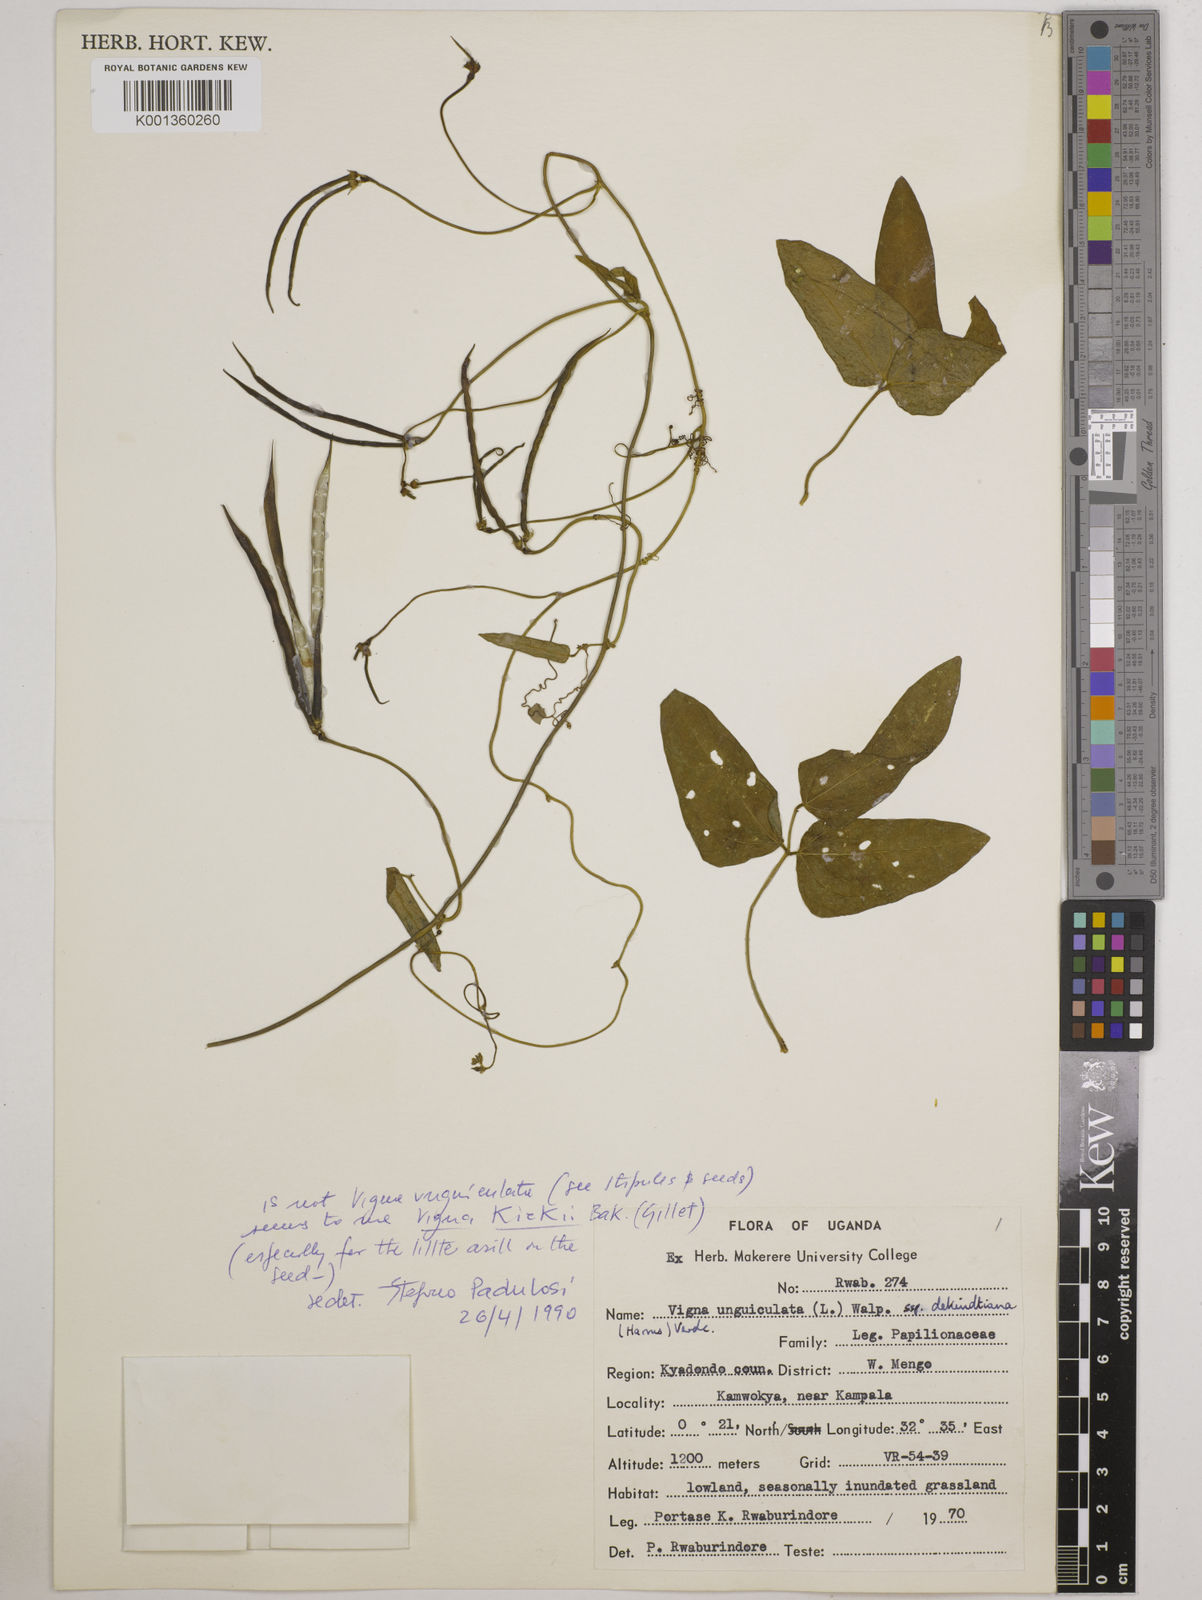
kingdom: Plantae
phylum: Tracheophyta
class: Magnoliopsida
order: Fabales
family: Fabaceae
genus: Vigna
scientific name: Vigna kirkii
